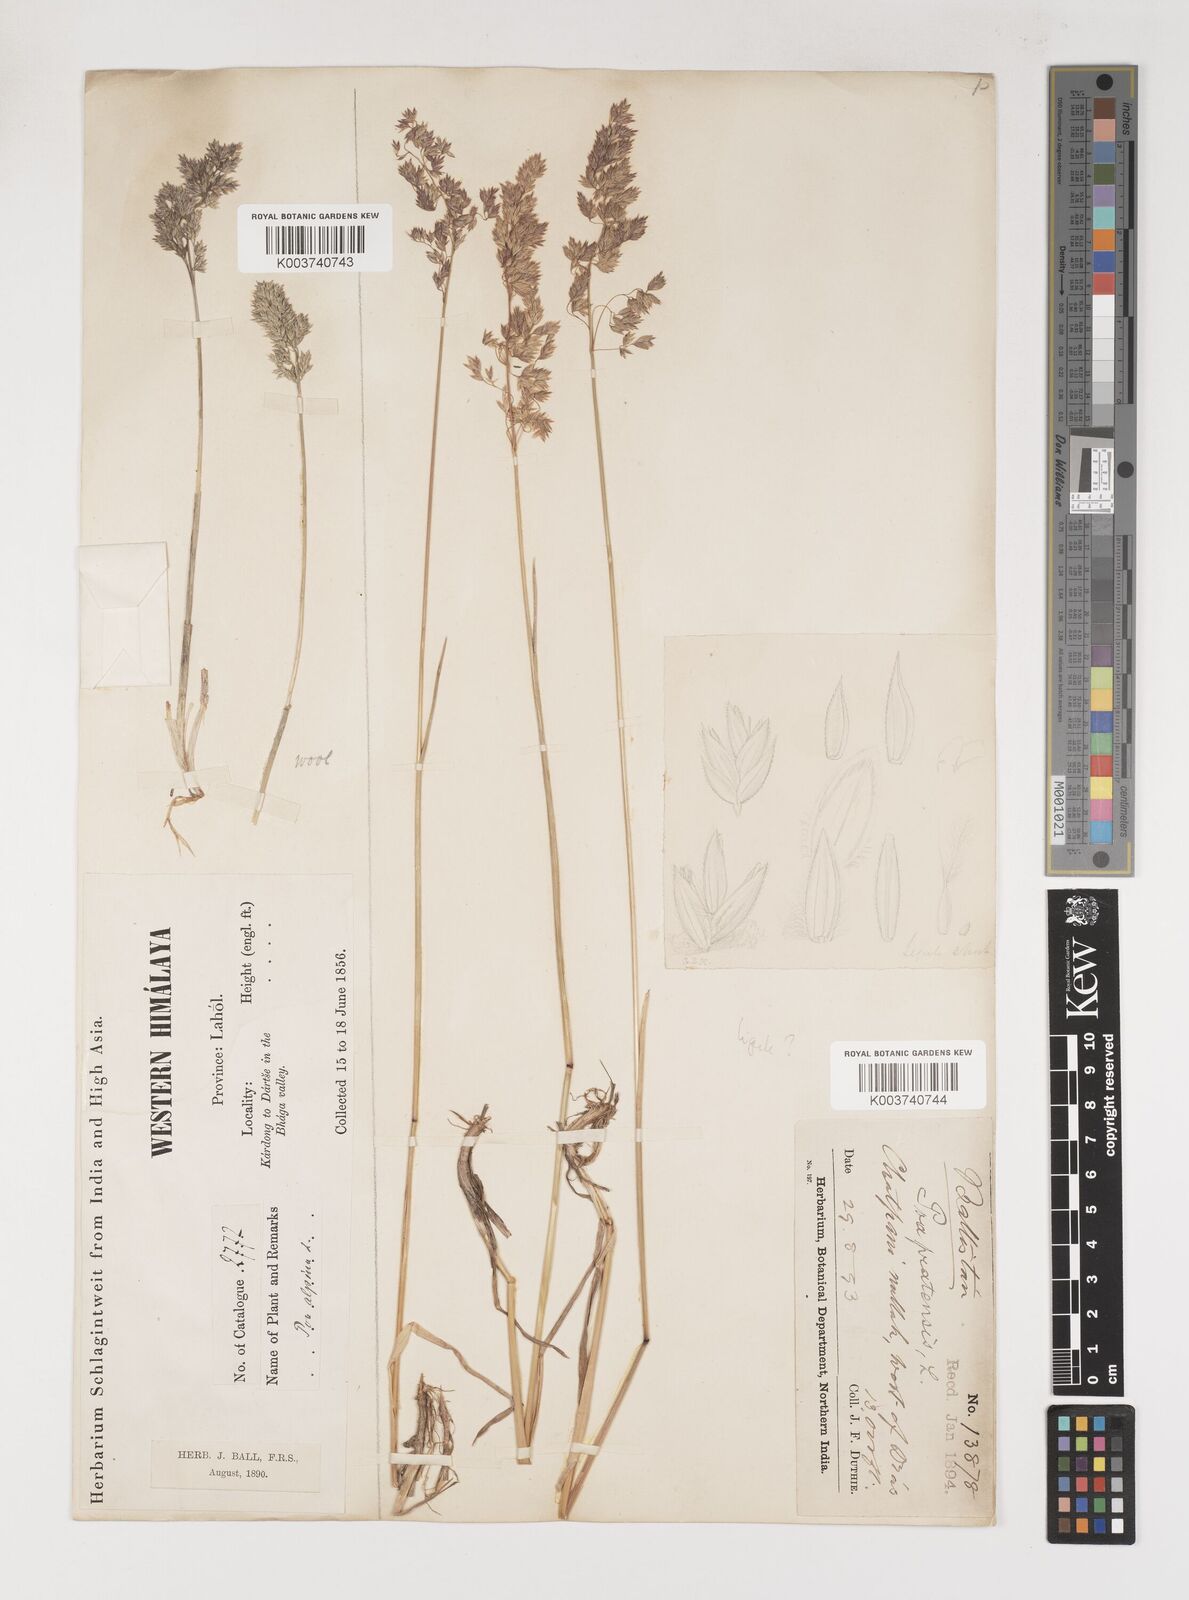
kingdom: Plantae
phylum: Tracheophyta
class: Liliopsida
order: Poales
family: Poaceae
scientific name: Poaceae
